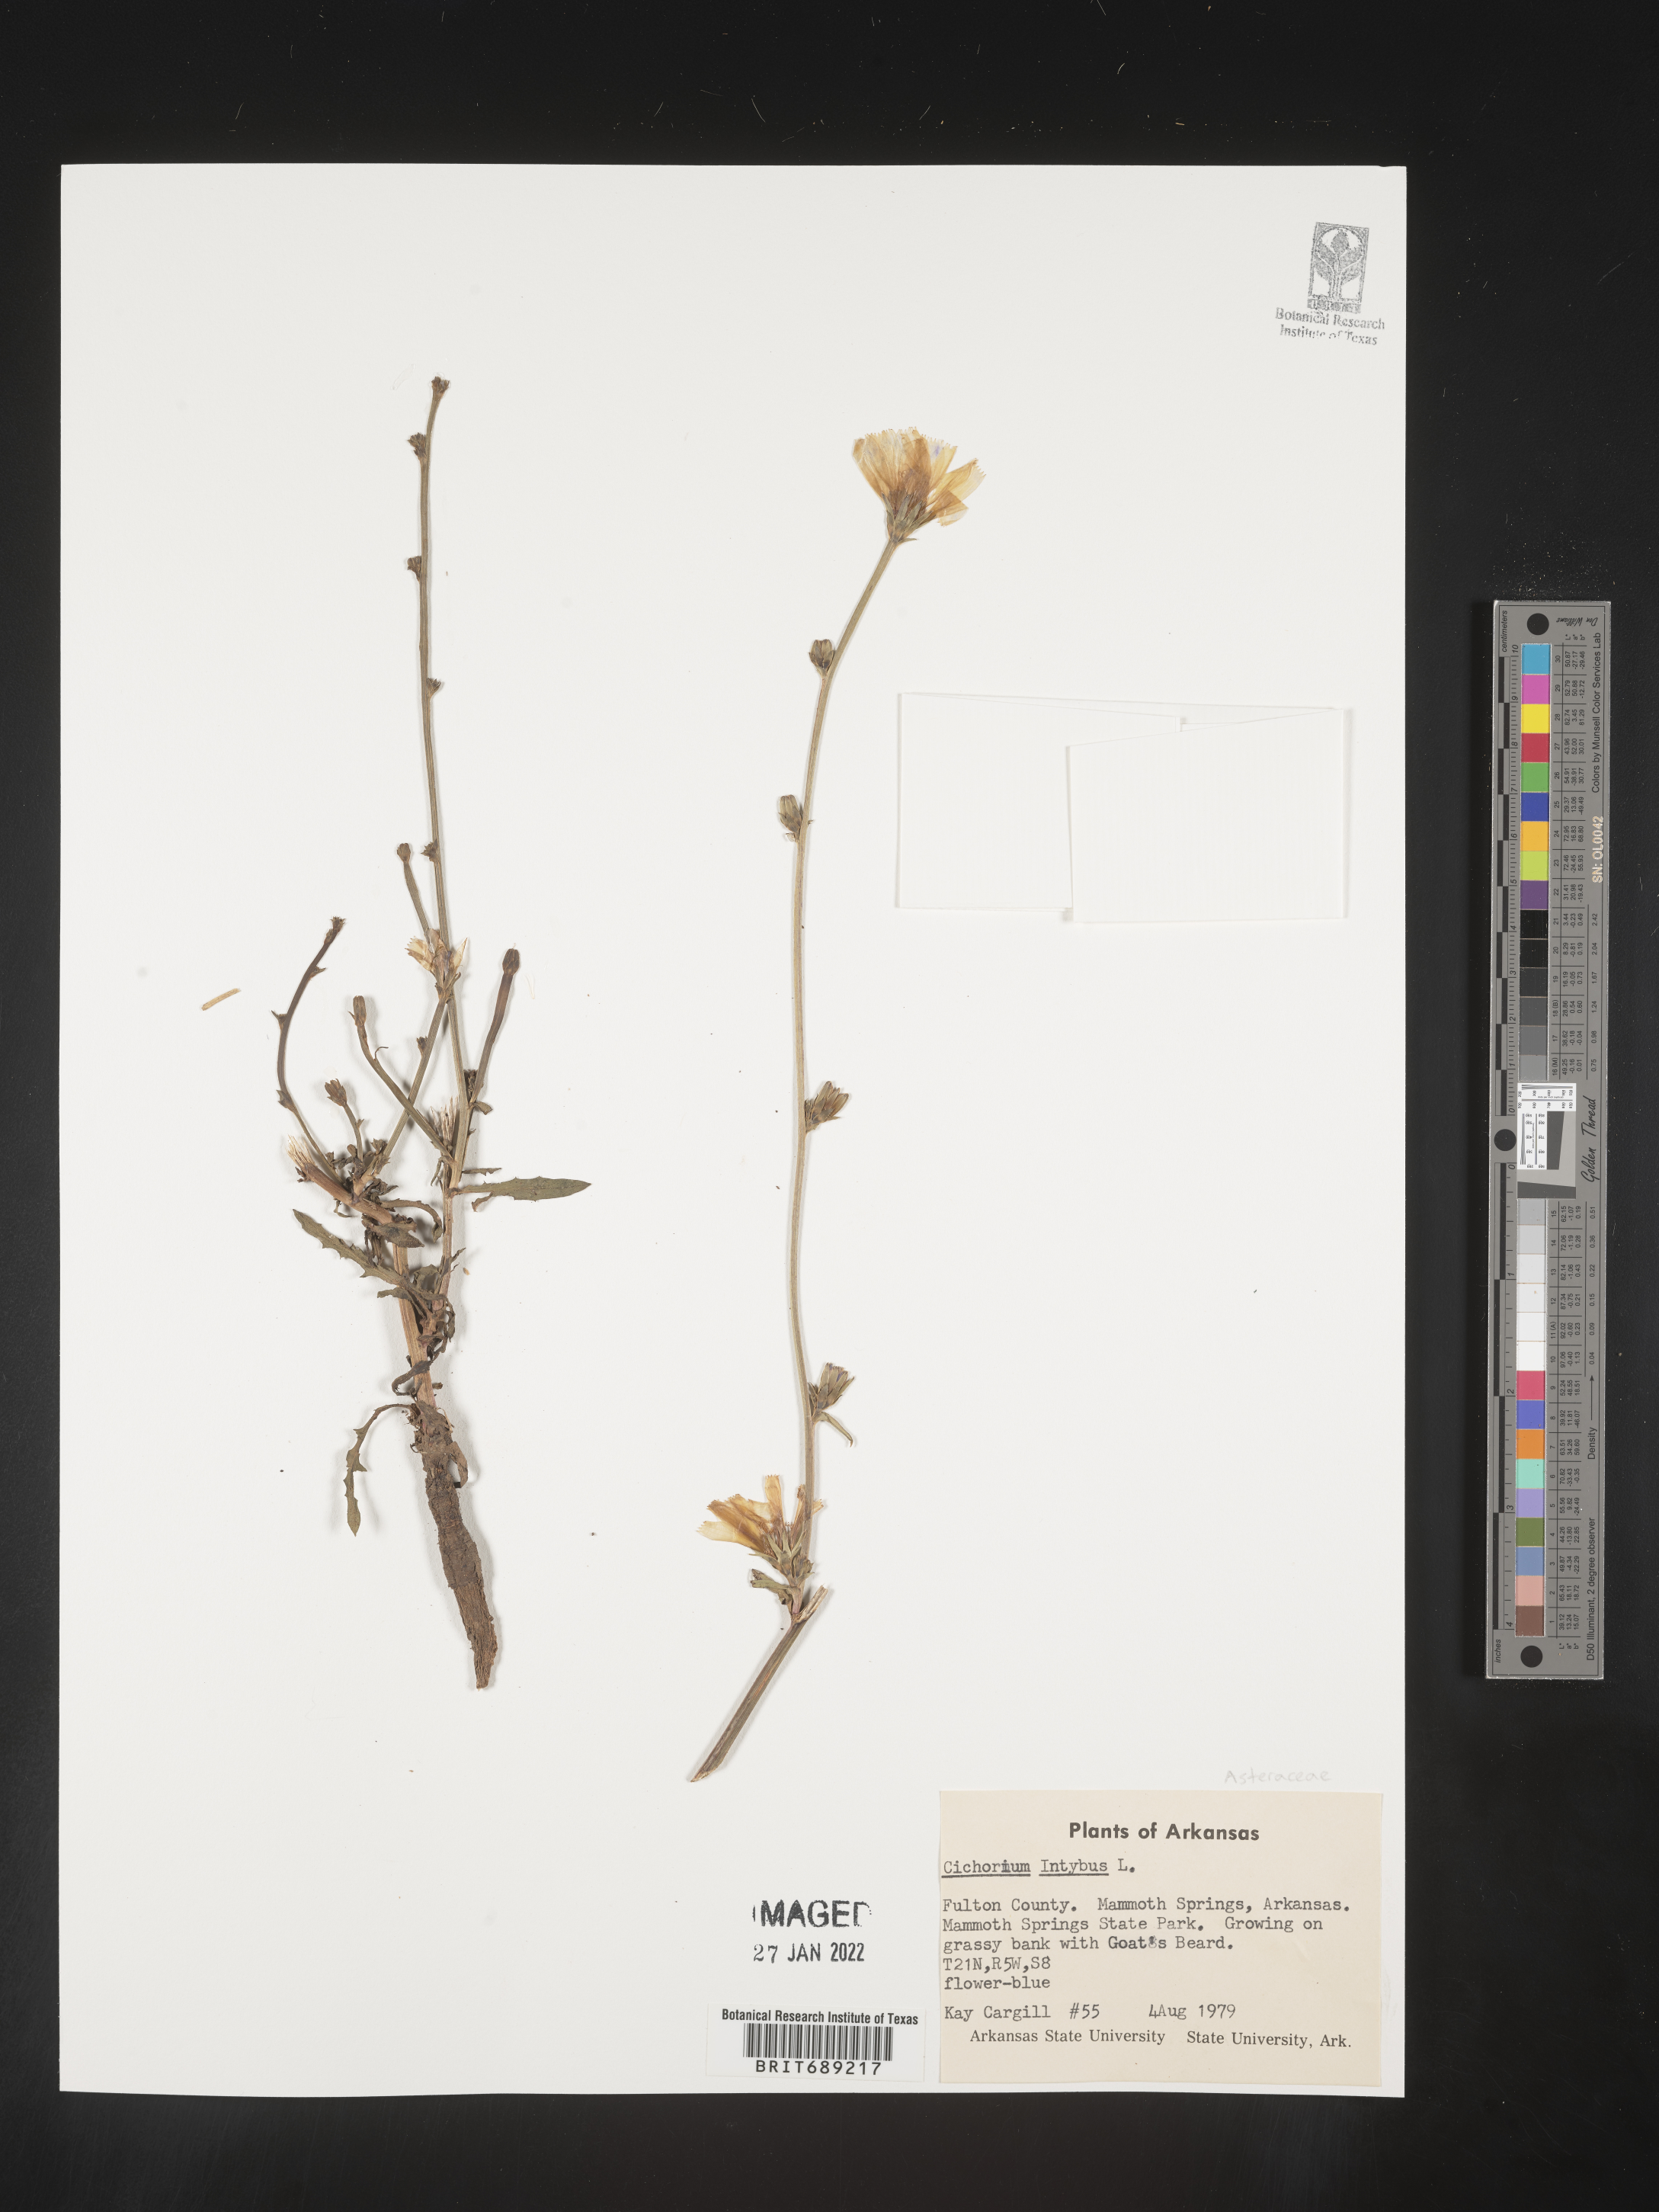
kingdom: Plantae
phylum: Tracheophyta
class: Magnoliopsida
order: Asterales
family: Asteraceae
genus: Cichorium
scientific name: Cichorium intybus
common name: Chicory
